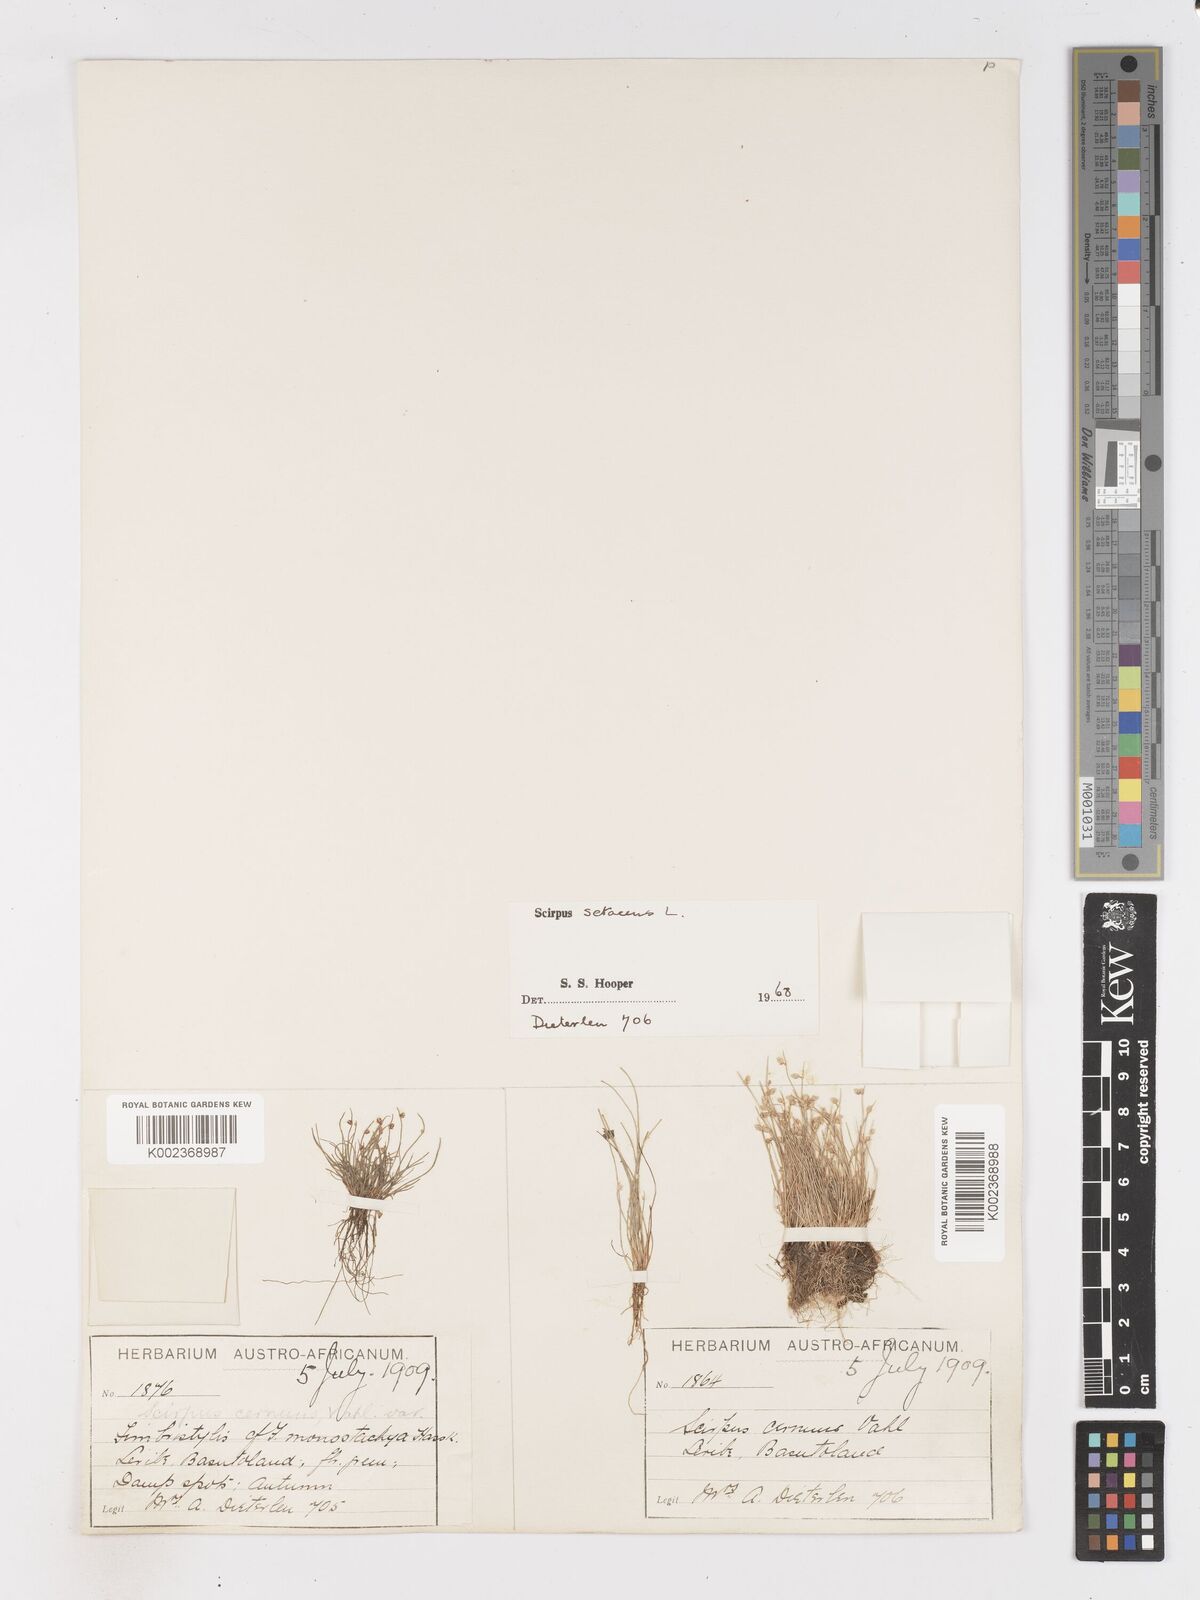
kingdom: Plantae
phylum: Tracheophyta
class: Liliopsida
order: Poales
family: Cyperaceae
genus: Isolepis
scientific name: Isolepis setacea
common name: Bristle club-rush
